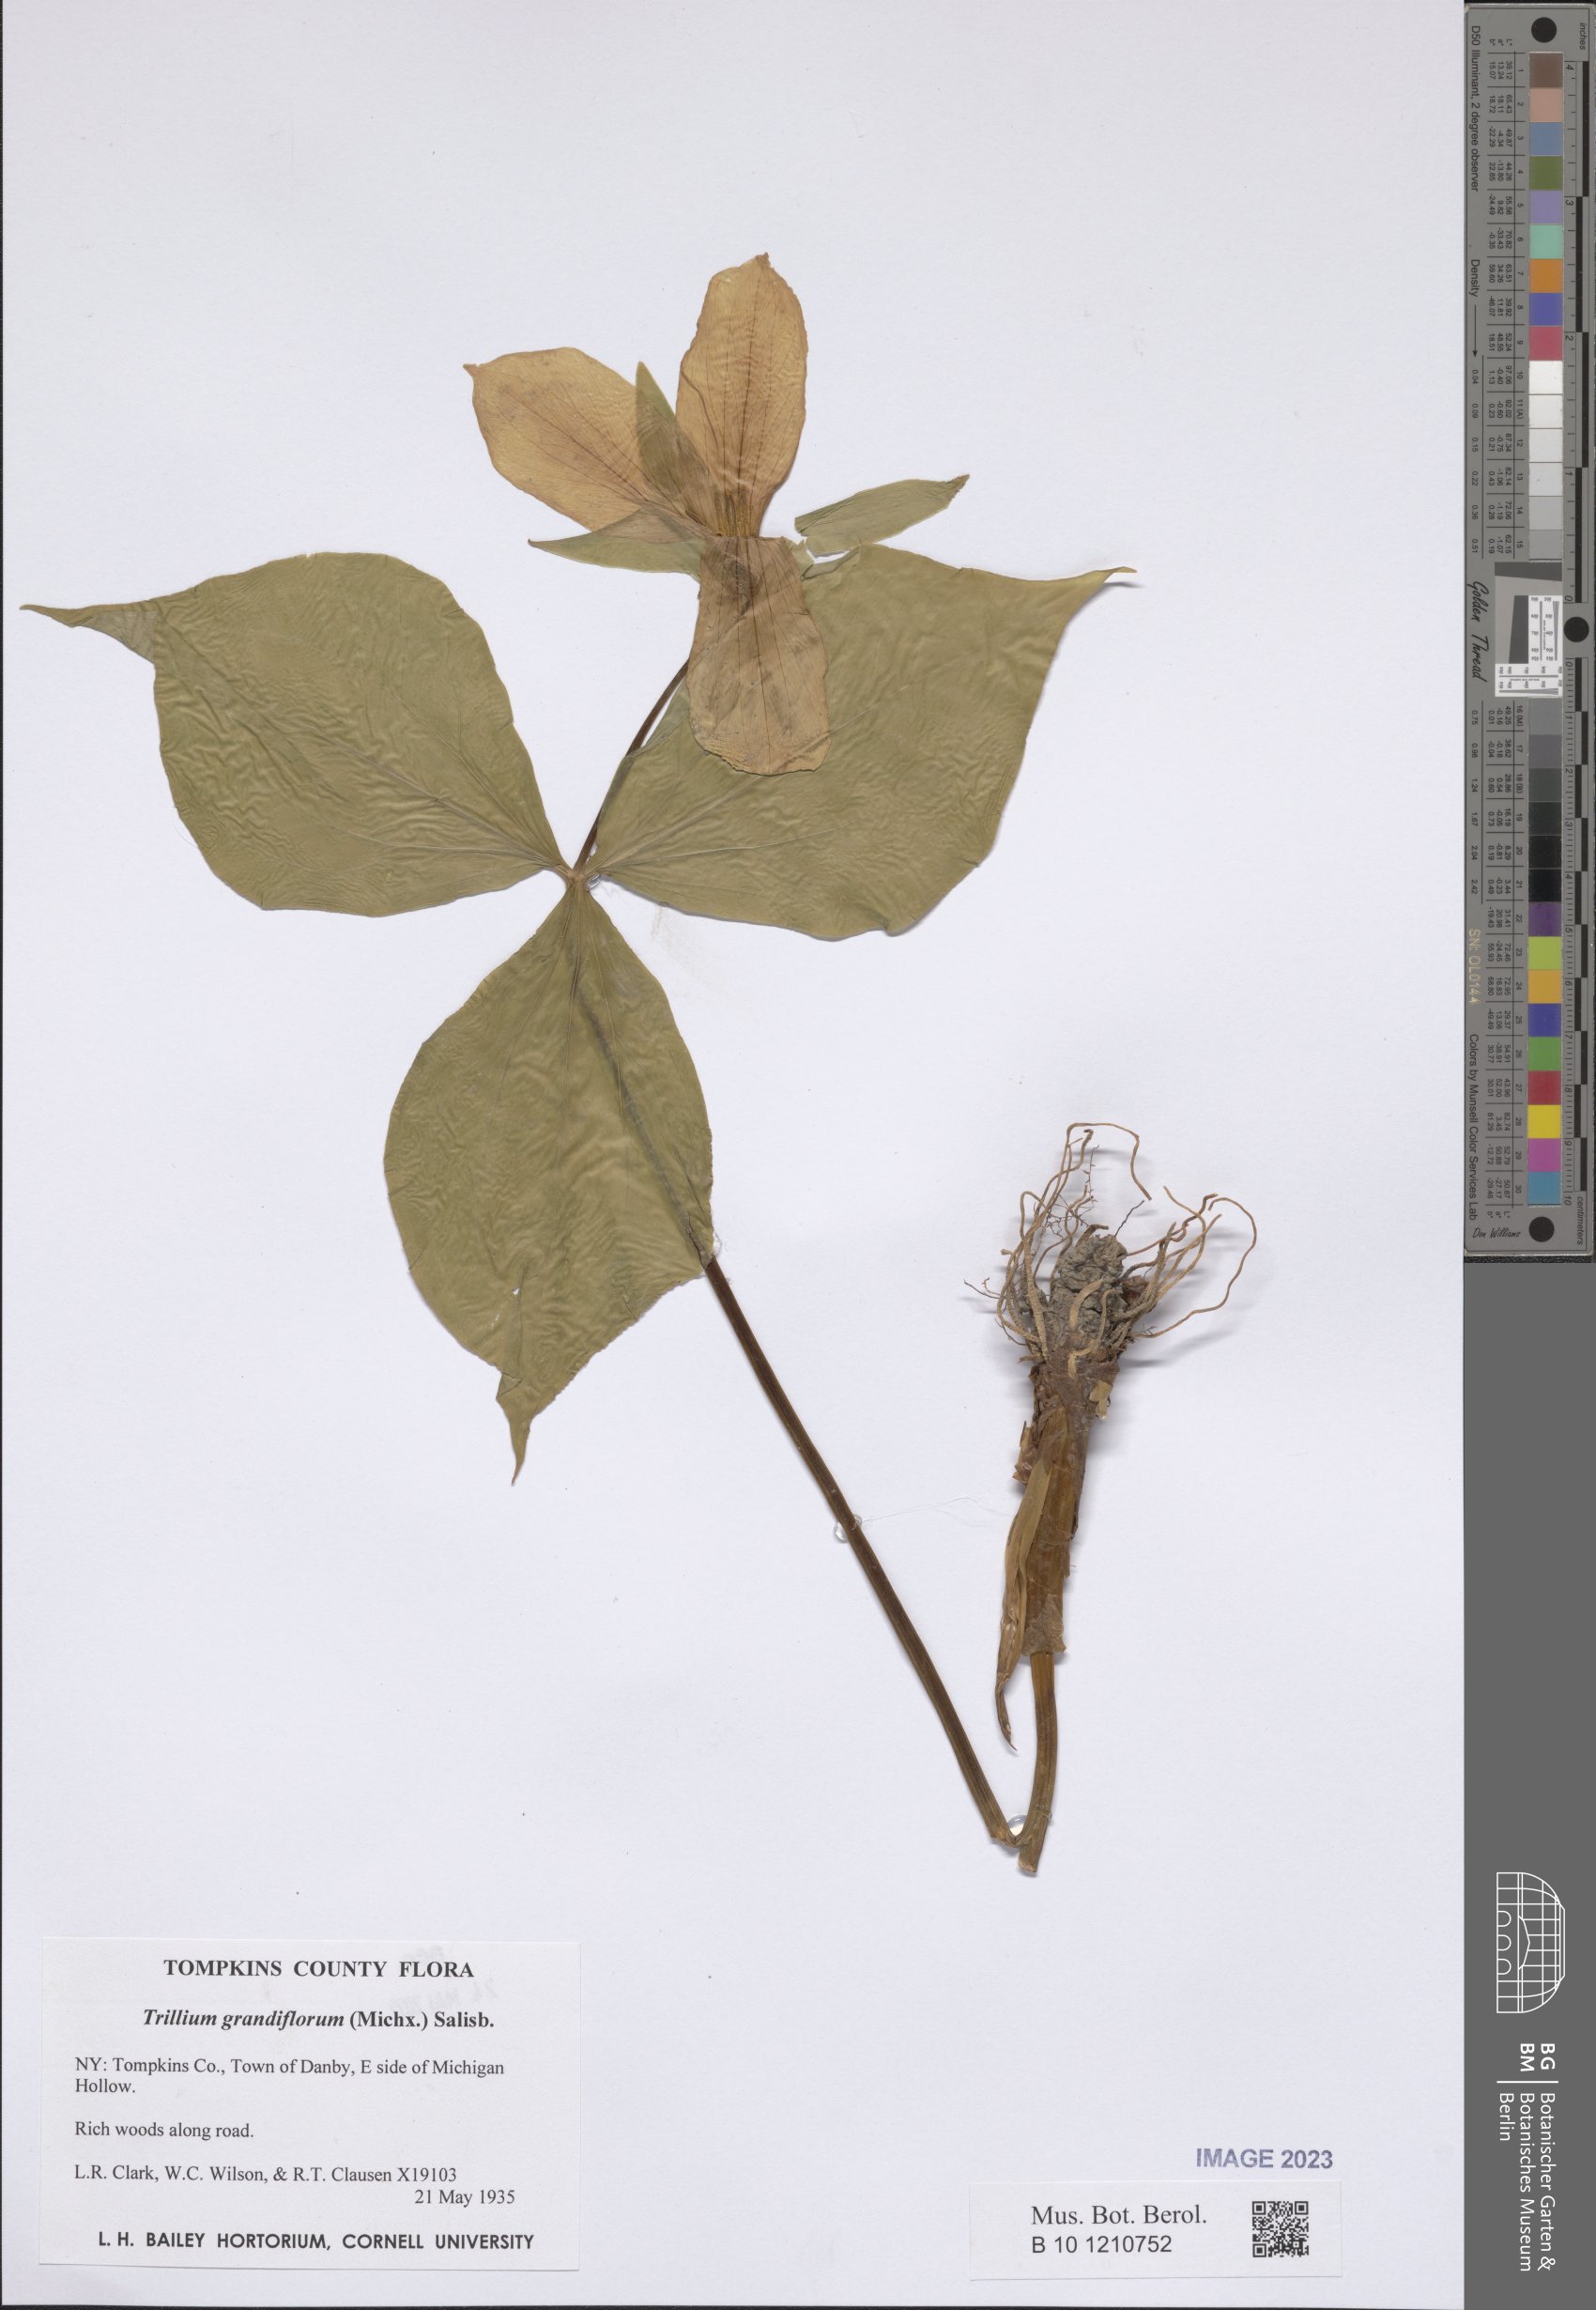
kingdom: Plantae
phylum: Tracheophyta
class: Liliopsida
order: Liliales
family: Melanthiaceae
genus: Trillium
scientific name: Trillium grandiflorum
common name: Great white trillium
